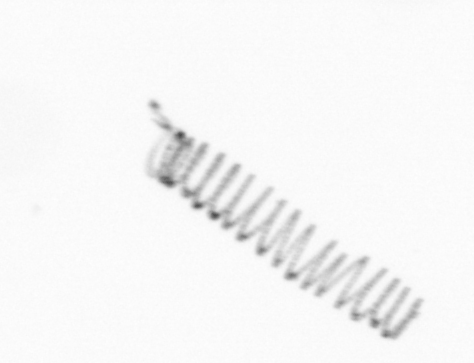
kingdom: Chromista
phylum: Ochrophyta
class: Bacillariophyceae
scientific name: Bacillariophyceae
